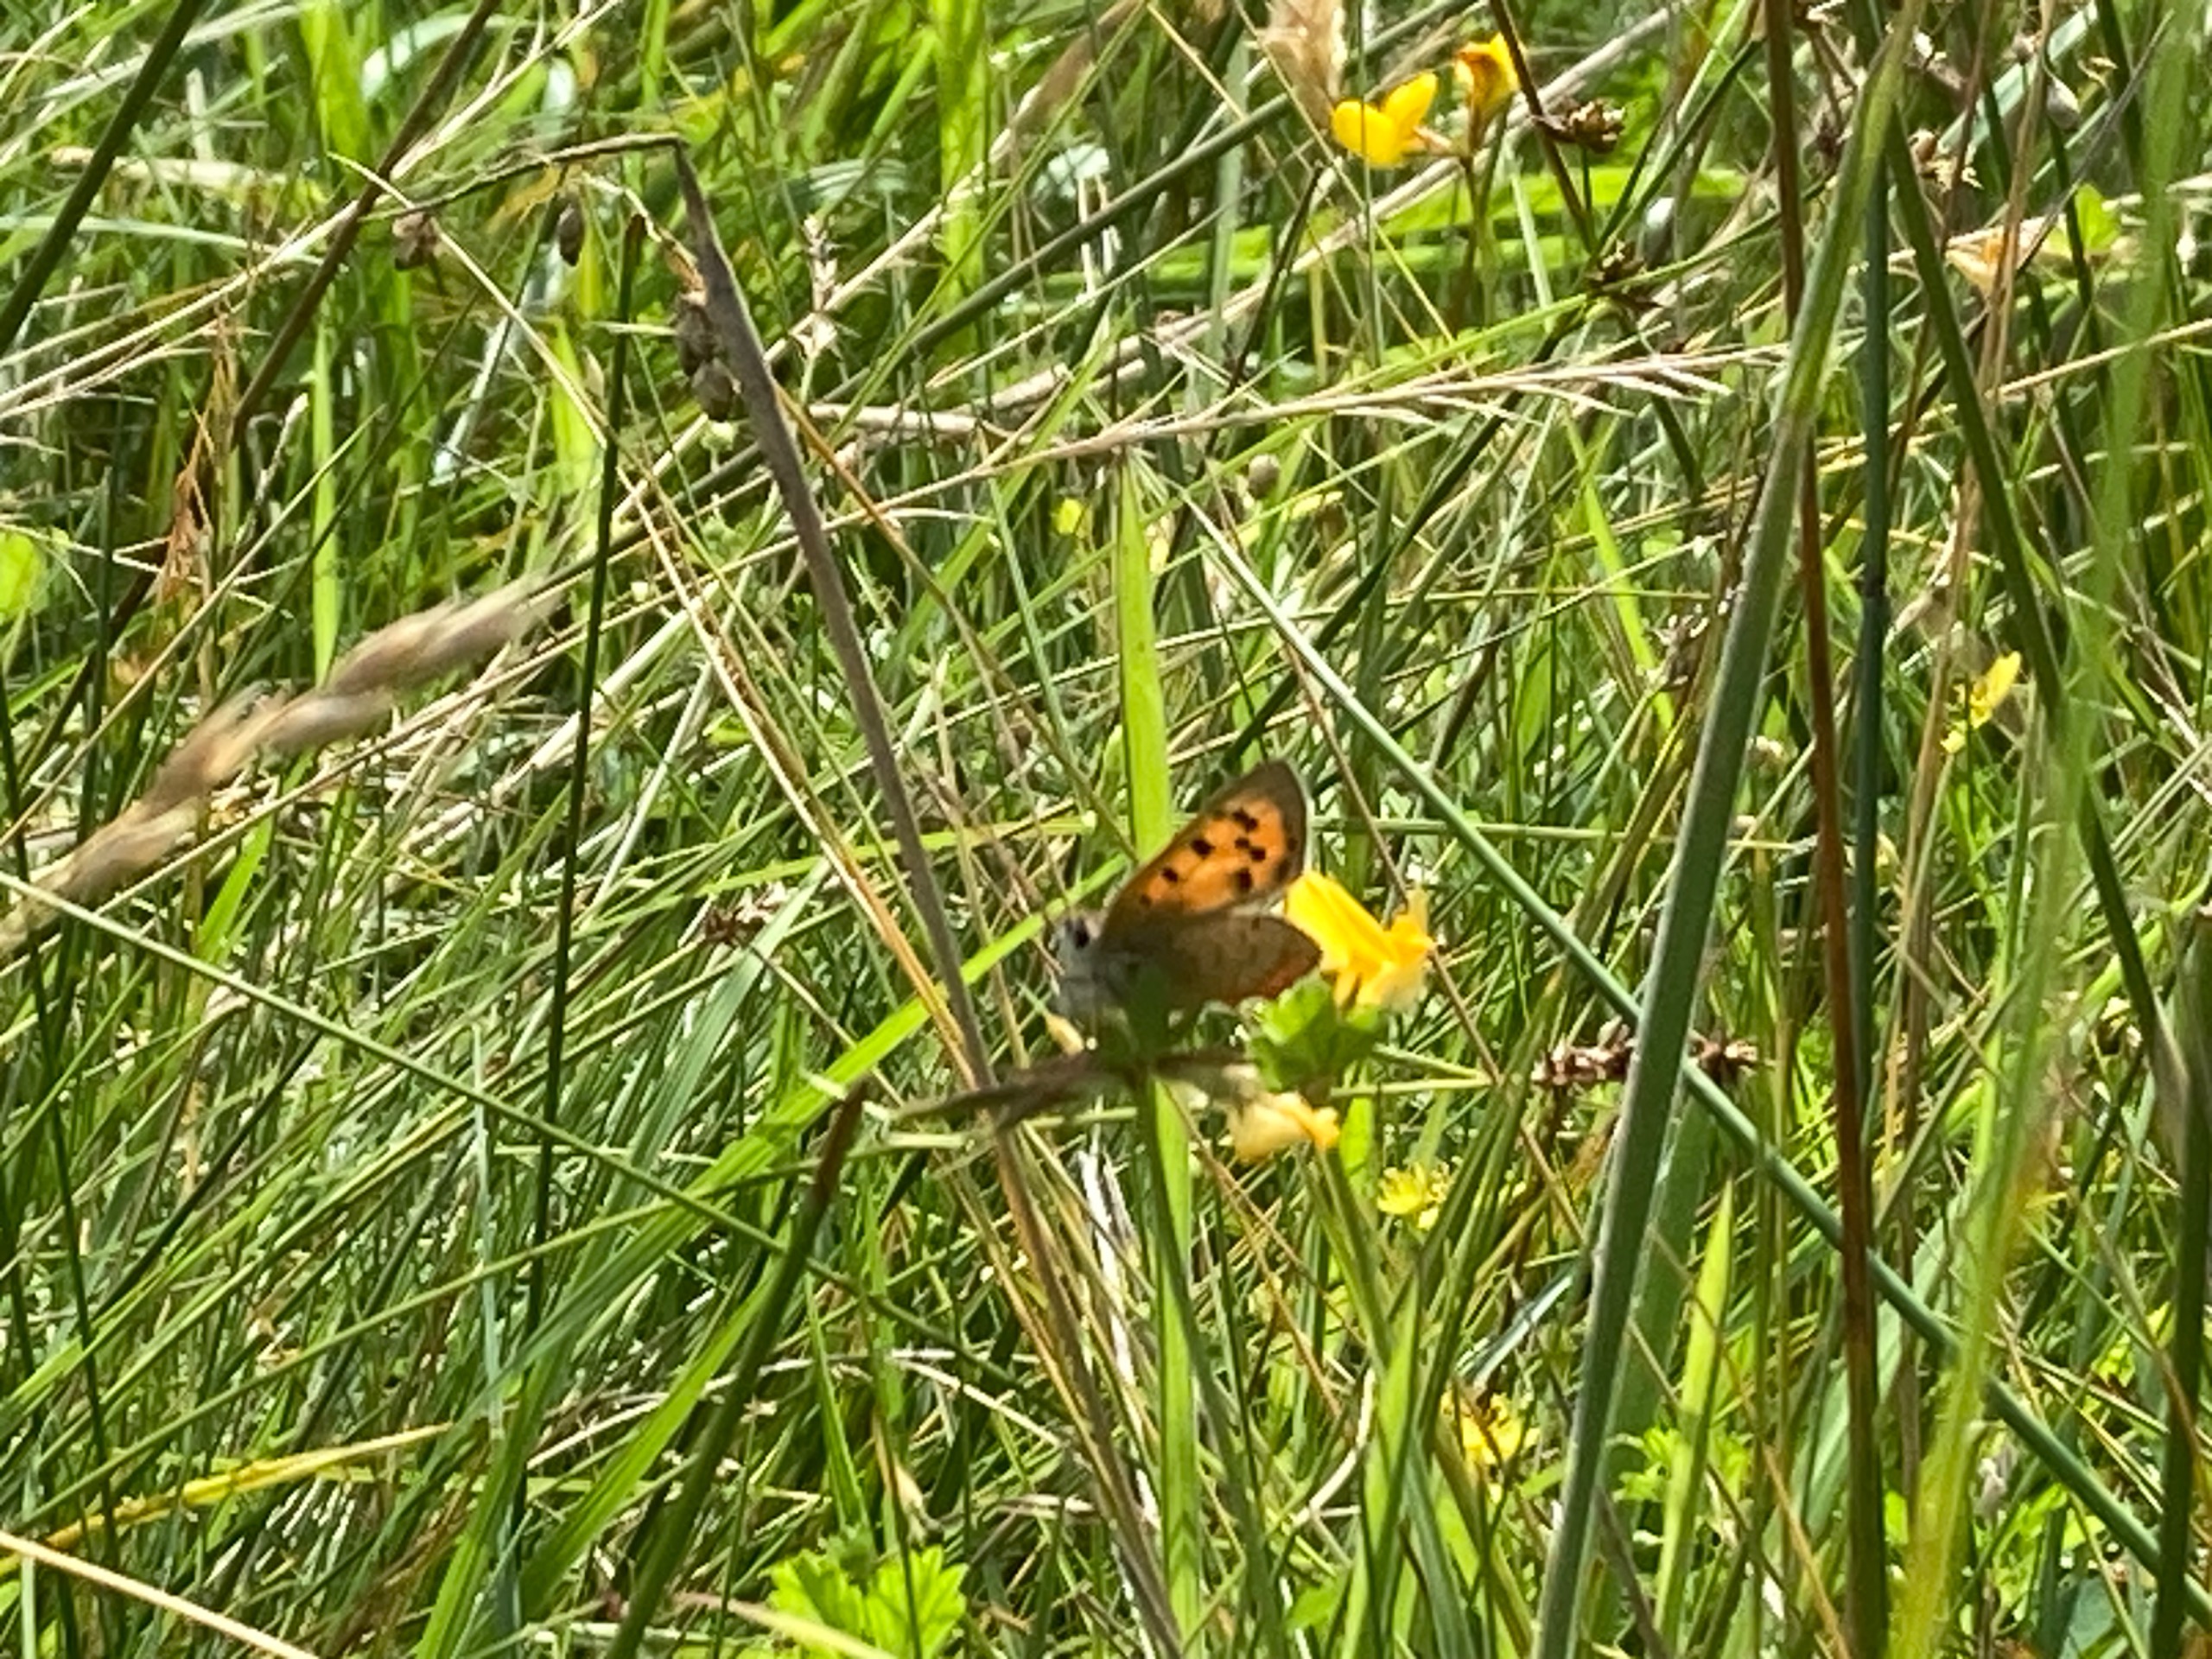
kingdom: Animalia
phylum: Arthropoda
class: Insecta
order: Lepidoptera
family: Lycaenidae
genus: Lycaena
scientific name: Lycaena phlaeas
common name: Lille ildfugl
